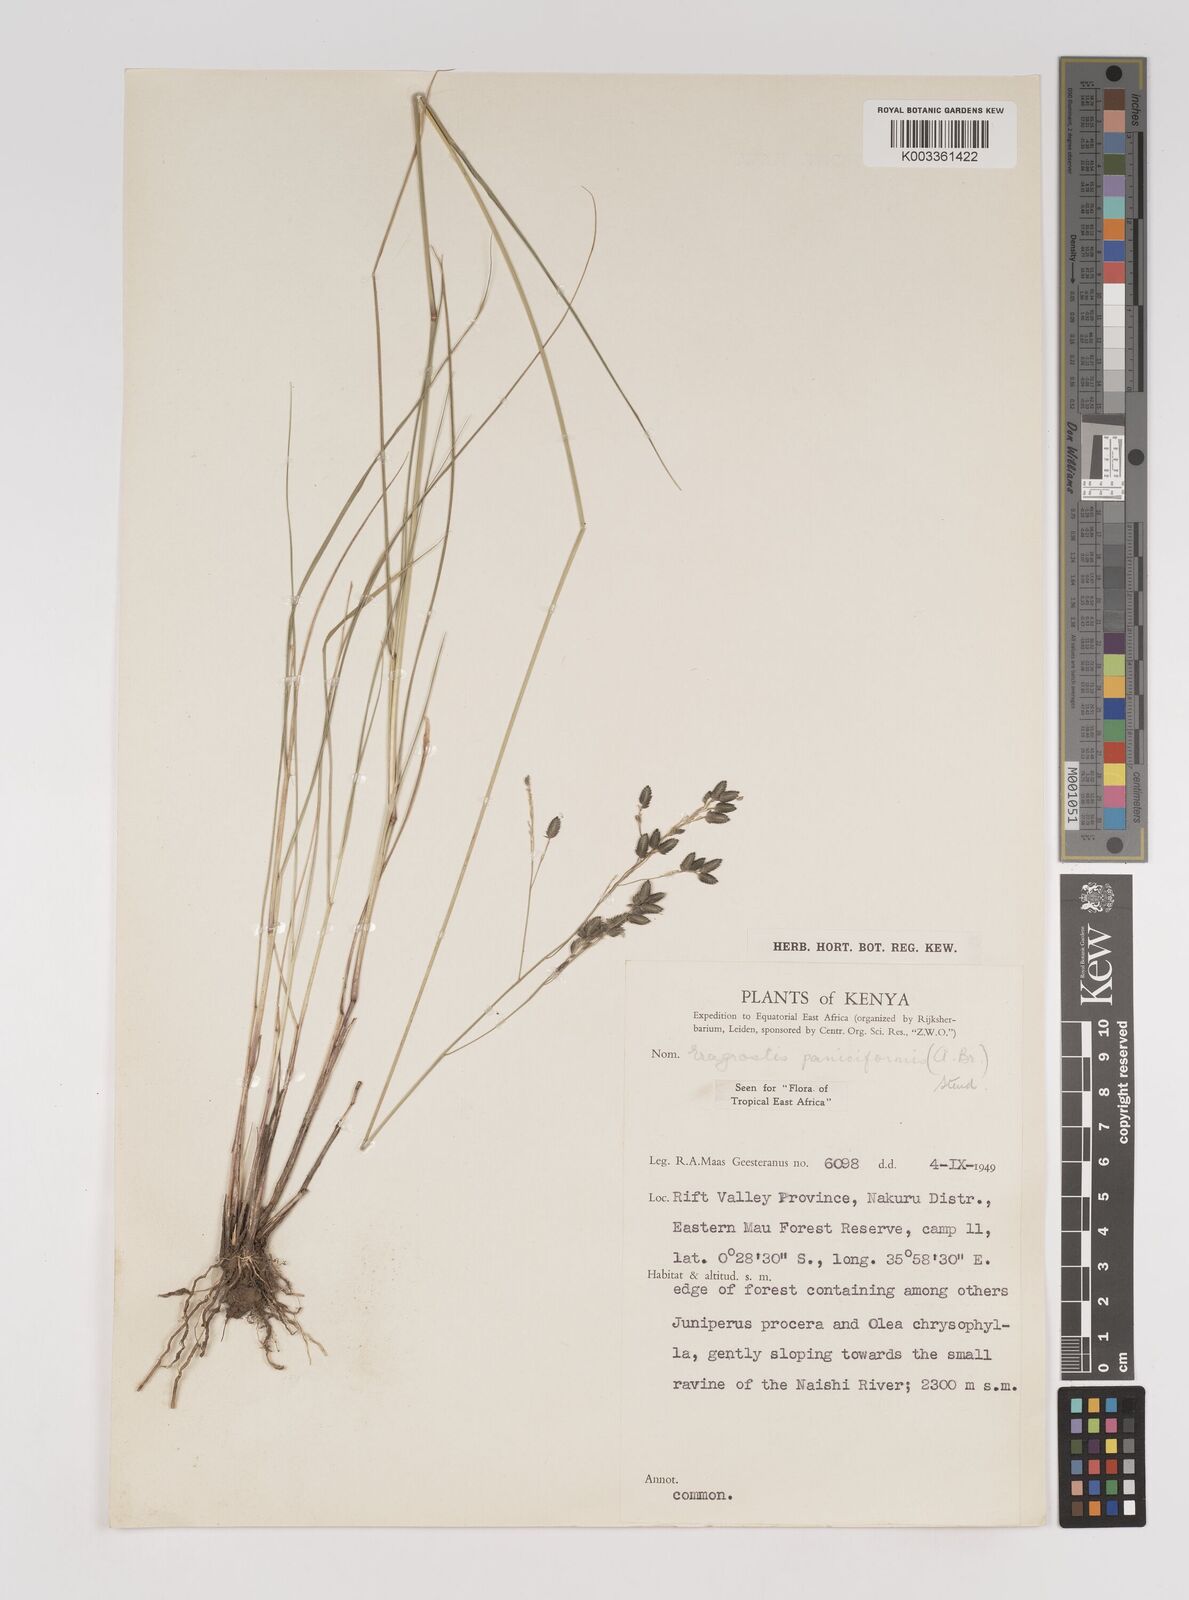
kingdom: Plantae
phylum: Tracheophyta
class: Liliopsida
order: Poales
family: Poaceae
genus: Eragrostis
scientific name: Eragrostis paniciformis
